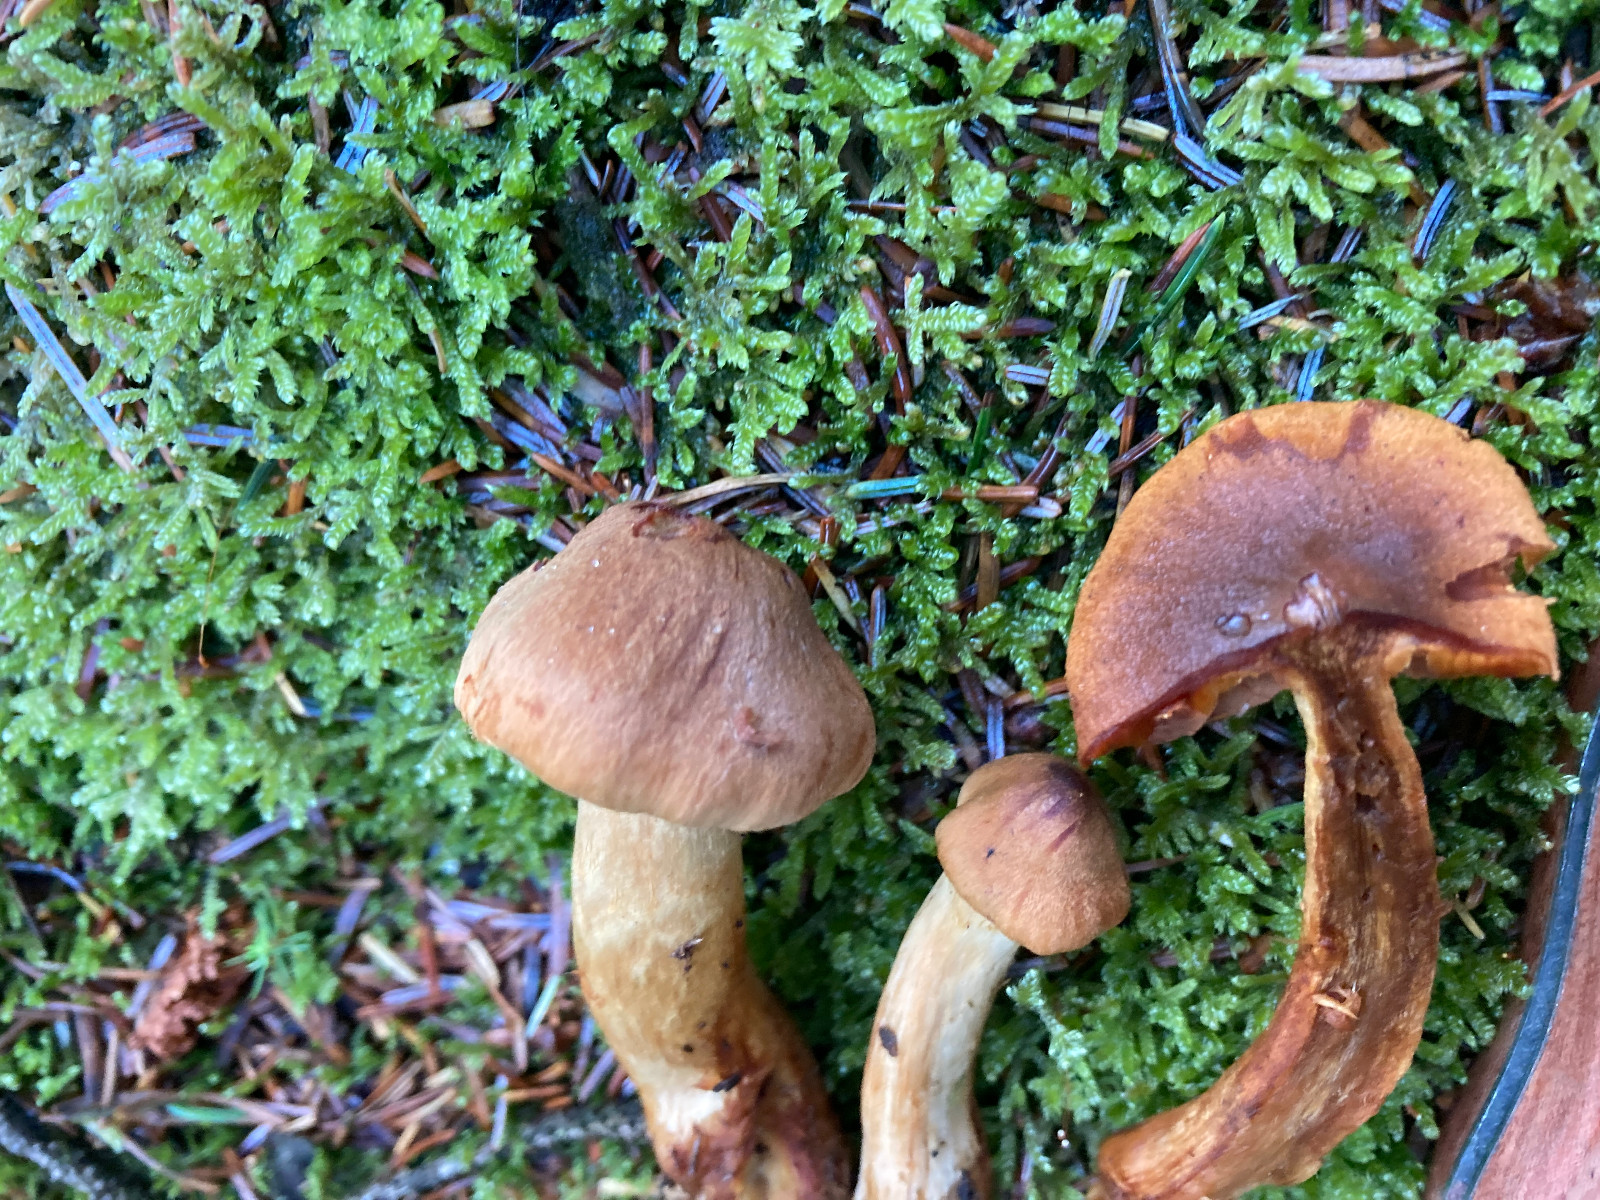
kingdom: Fungi
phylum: Basidiomycota
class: Agaricomycetes
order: Agaricales
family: Cortinariaceae
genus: Cortinarius
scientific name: Cortinarius
